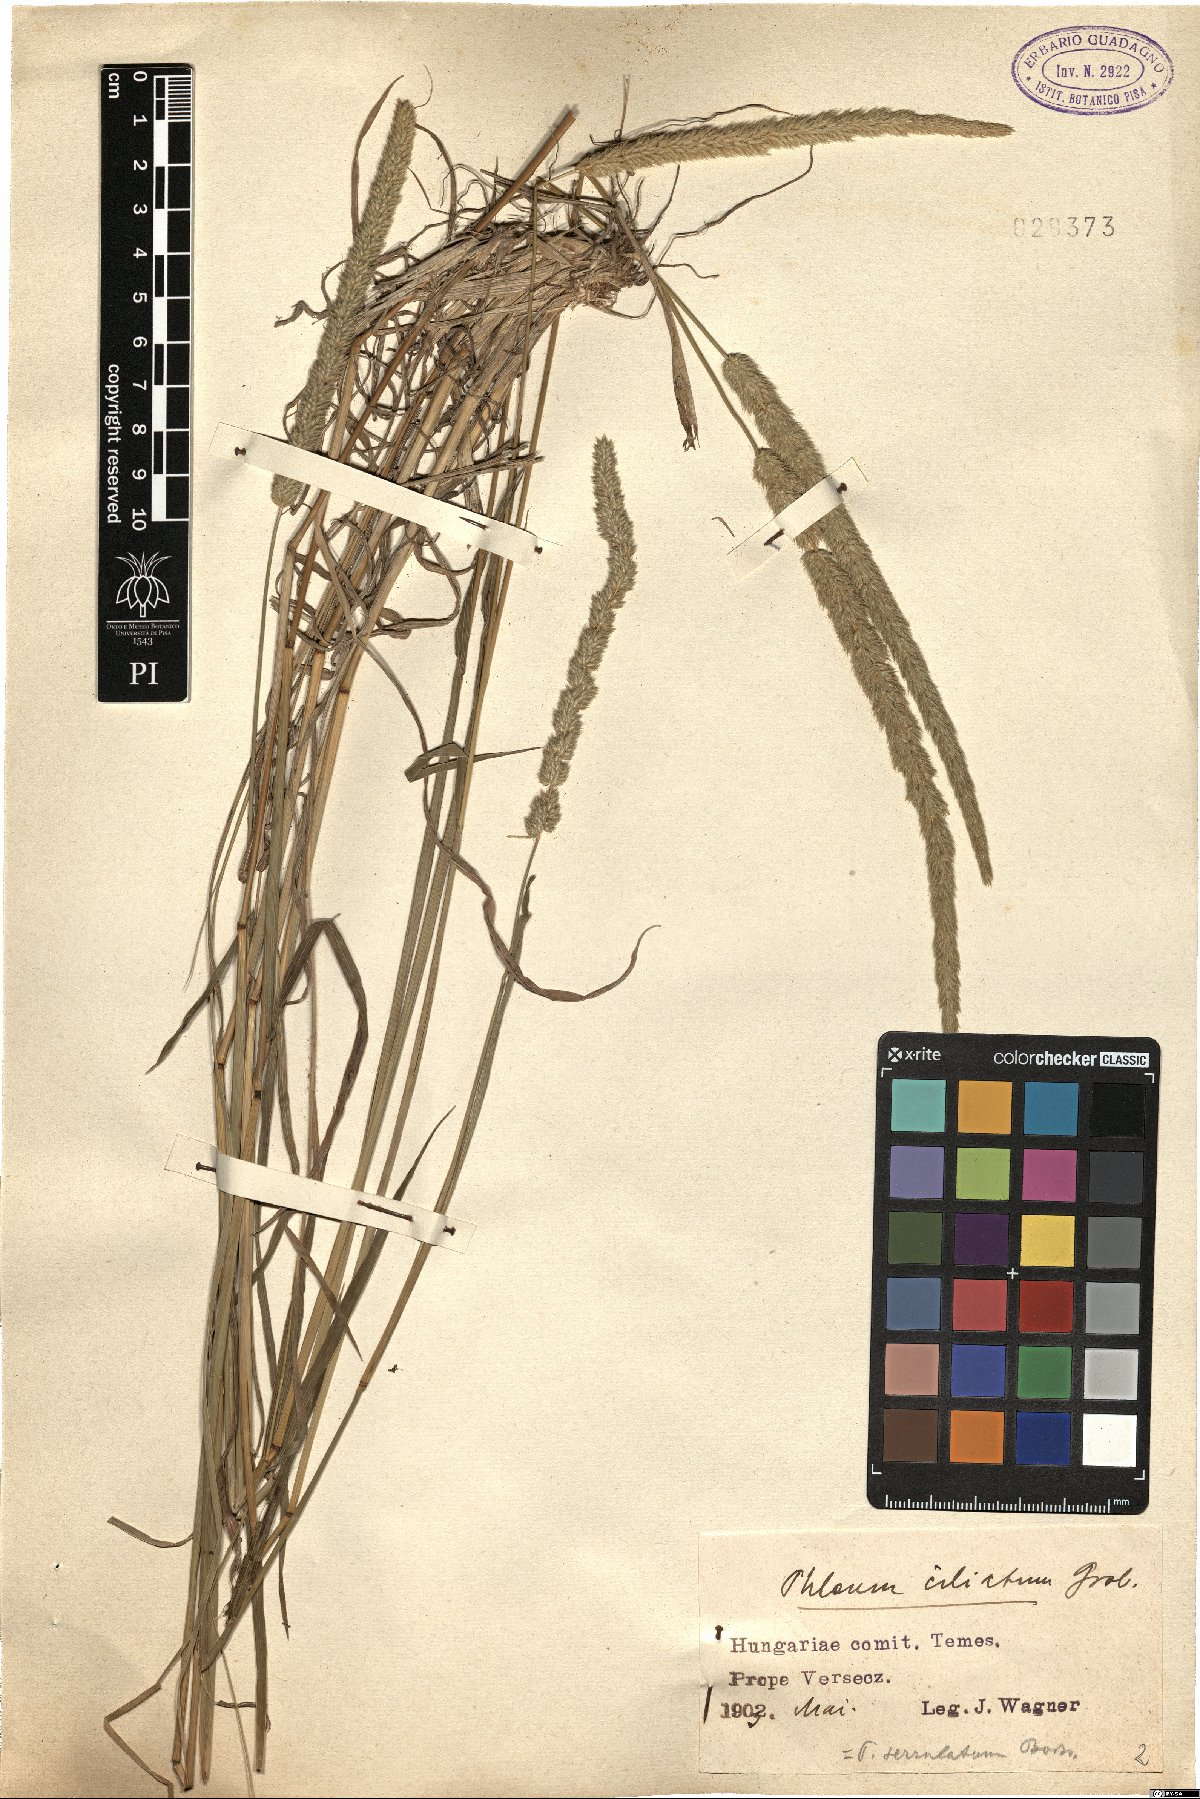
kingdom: Plantae
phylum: Tracheophyta
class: Liliopsida
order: Poales
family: Poaceae
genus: Phleum
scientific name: Phleum montanum
